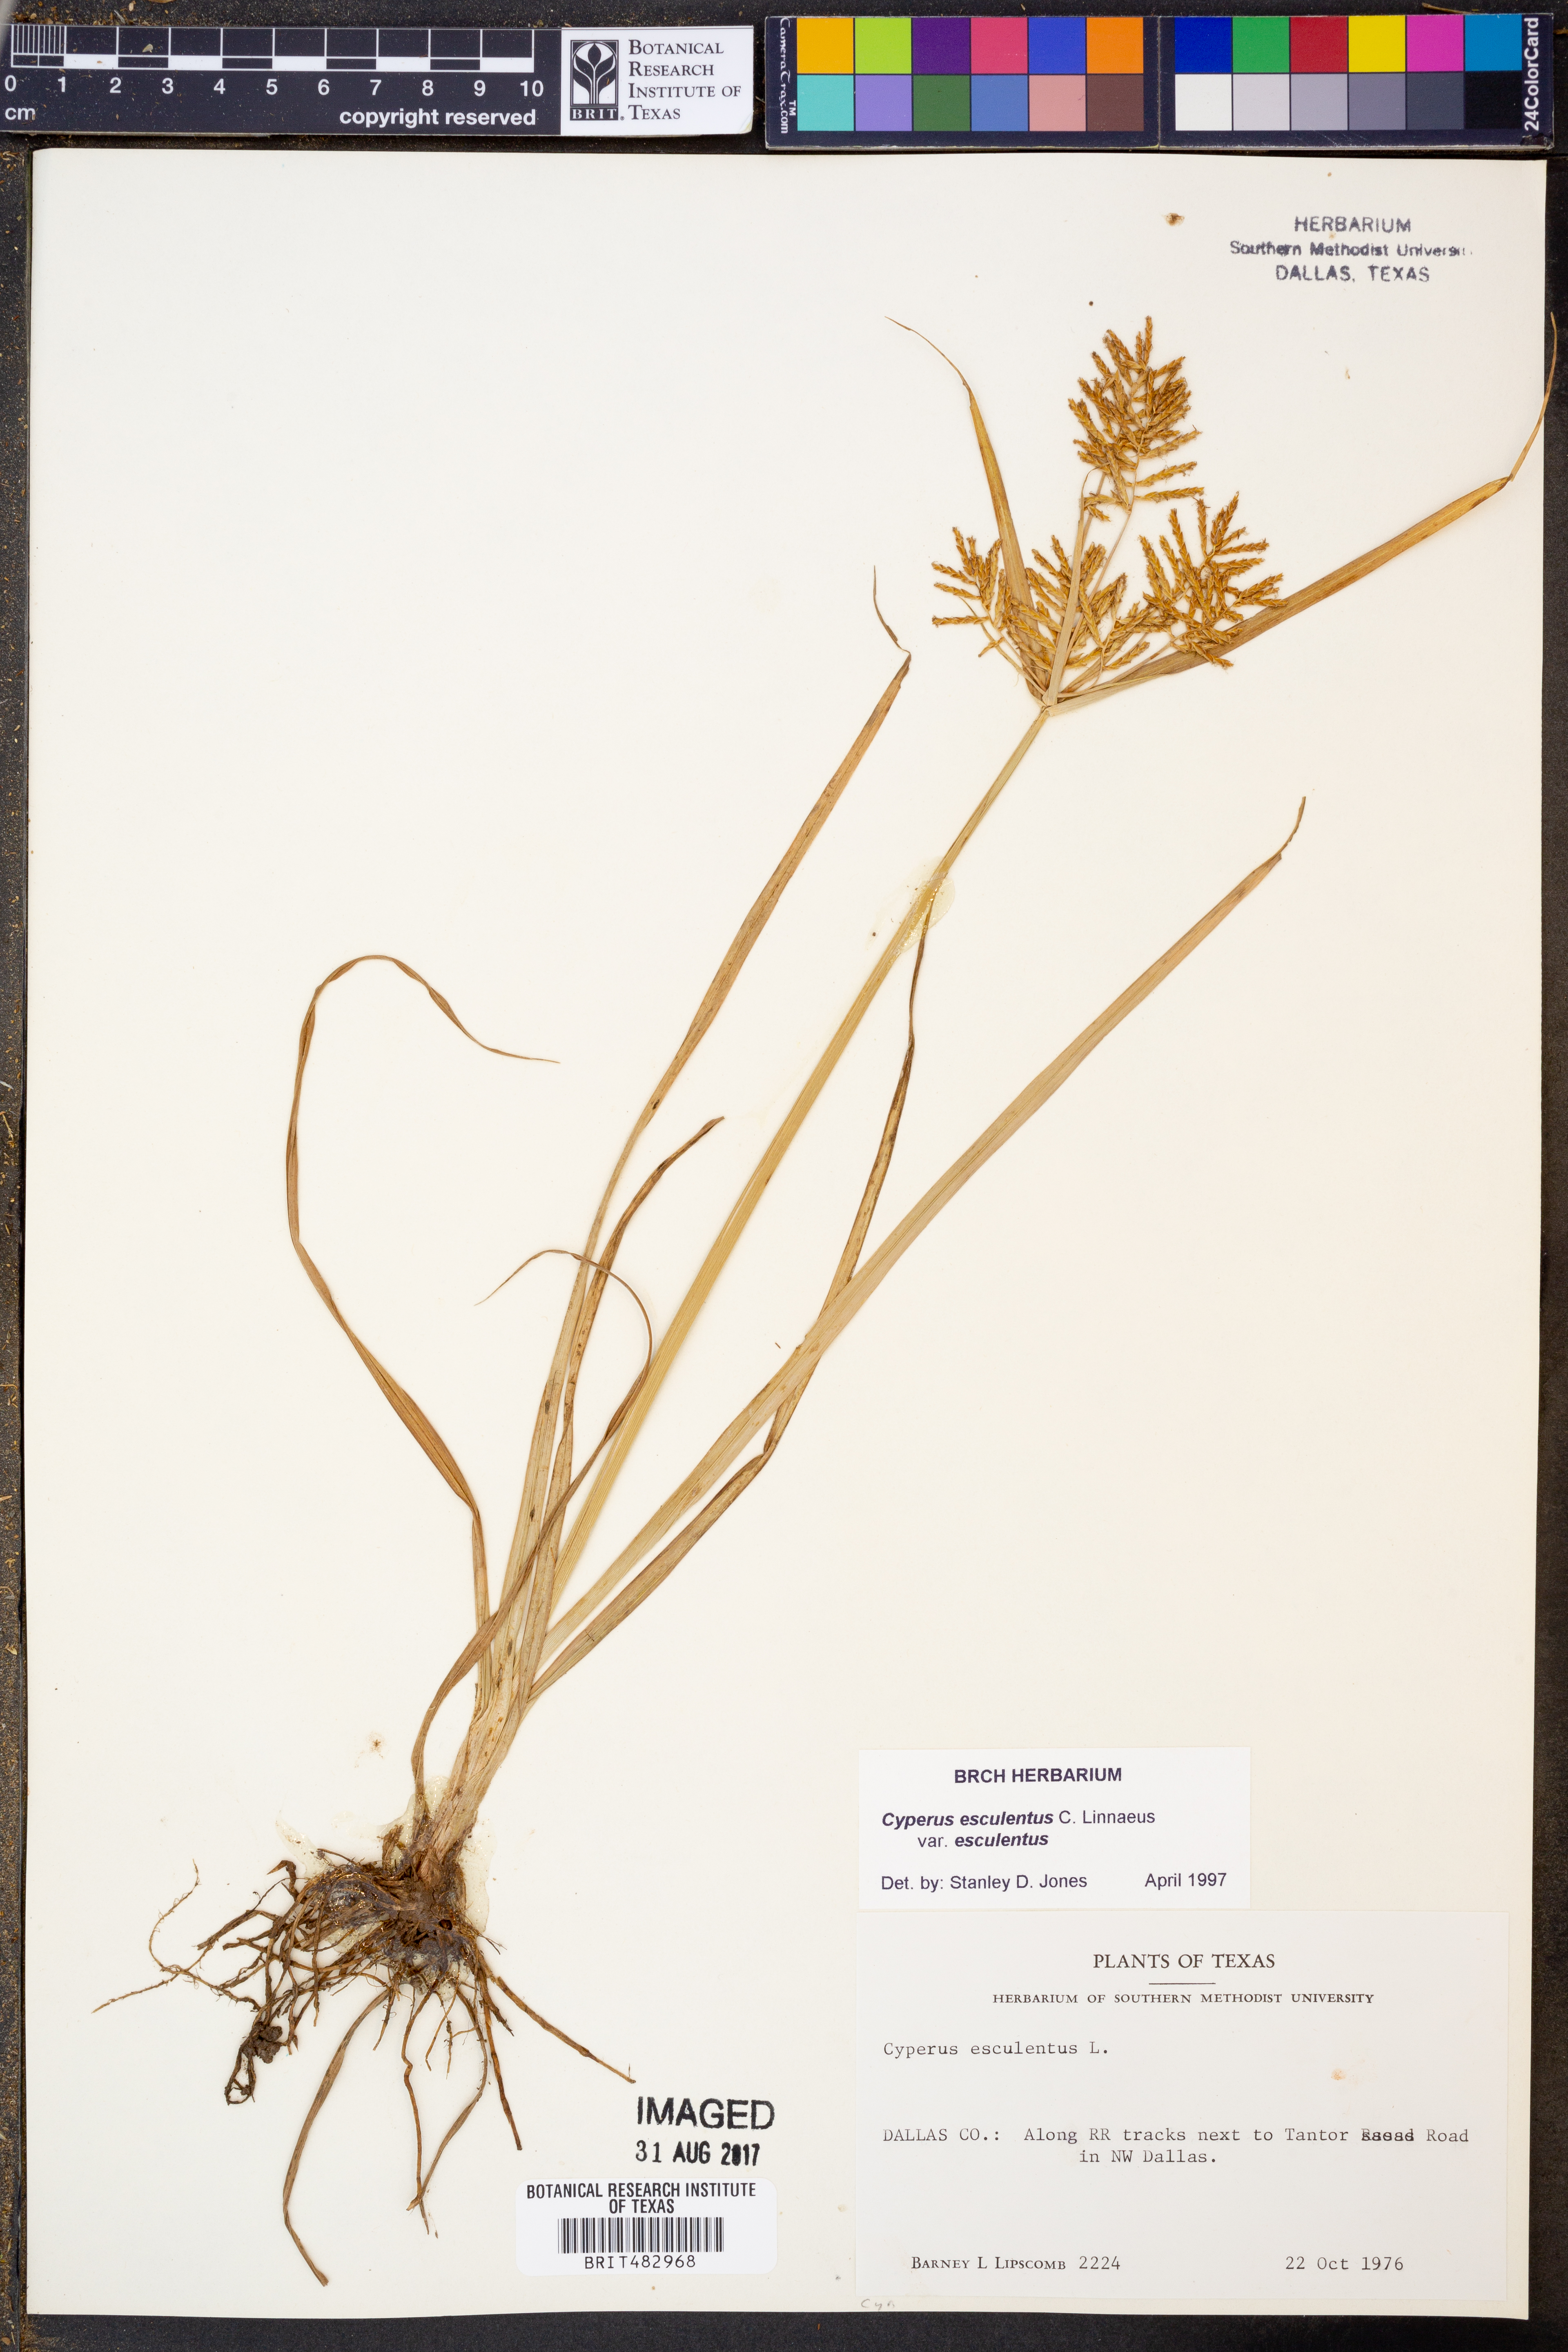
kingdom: Plantae
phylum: Tracheophyta
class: Liliopsida
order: Poales
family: Cyperaceae
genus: Cyperus
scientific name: Cyperus esculentus
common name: Yellow nutsedge
